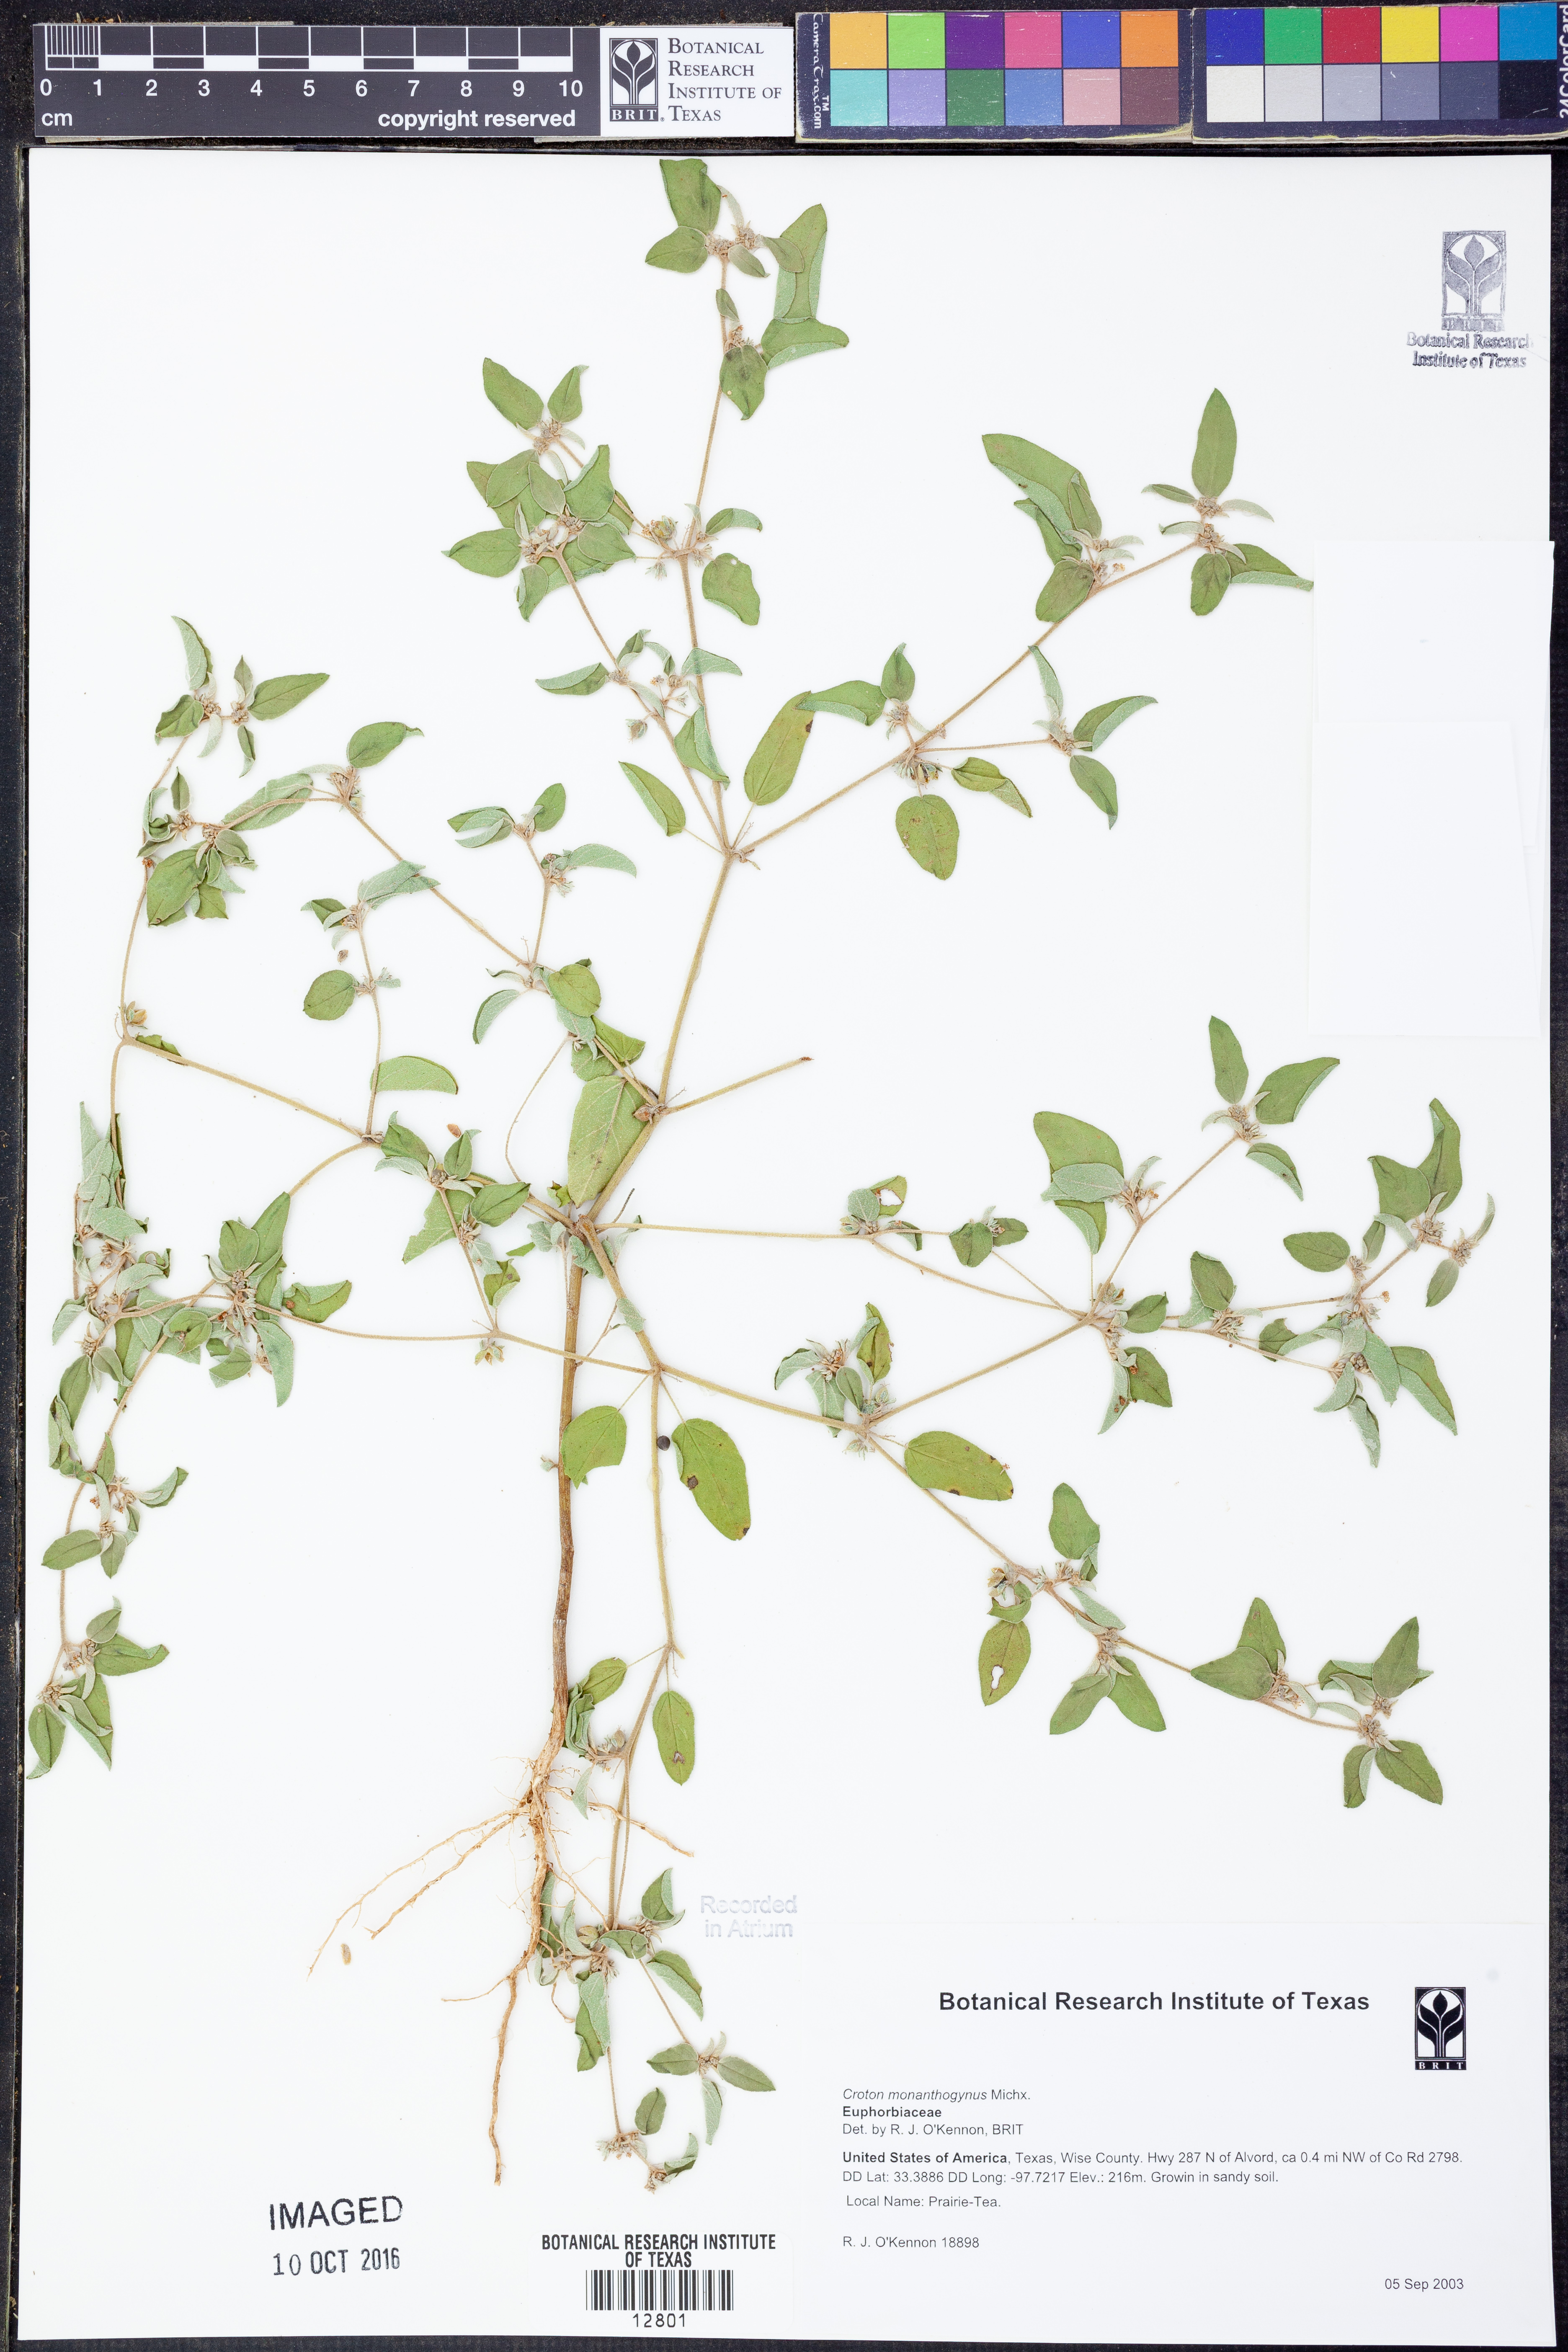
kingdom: Plantae
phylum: Tracheophyta
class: Magnoliopsida
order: Malpighiales
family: Euphorbiaceae
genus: Croton
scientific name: Croton monanthogynus
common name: One-seed croton
